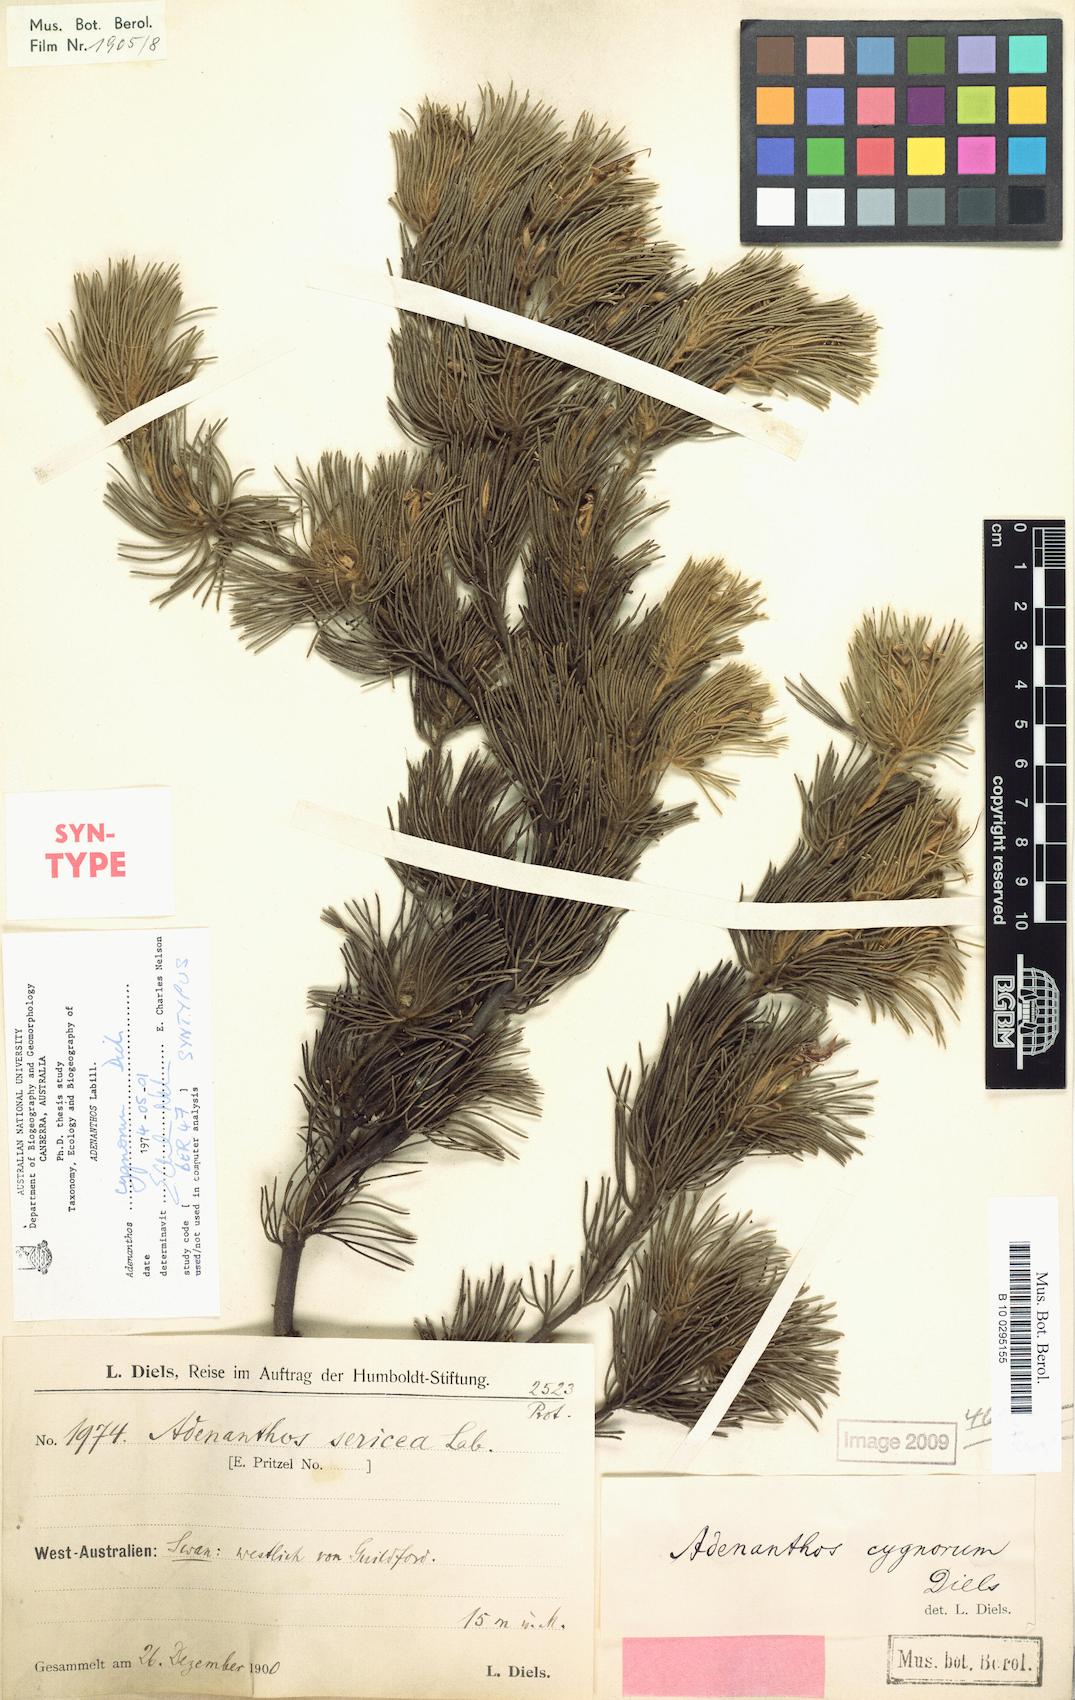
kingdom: Plantae
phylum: Tracheophyta
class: Magnoliopsida
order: Proteales
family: Proteaceae
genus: Adenanthos
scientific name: Adenanthos cygnorum
